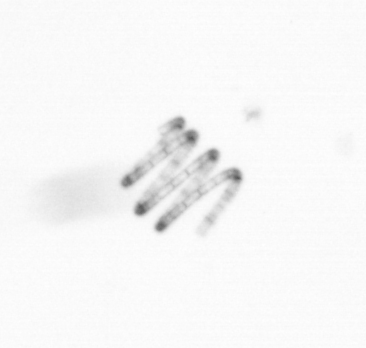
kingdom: Chromista
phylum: Ochrophyta
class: Bacillariophyceae
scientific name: Bacillariophyceae
